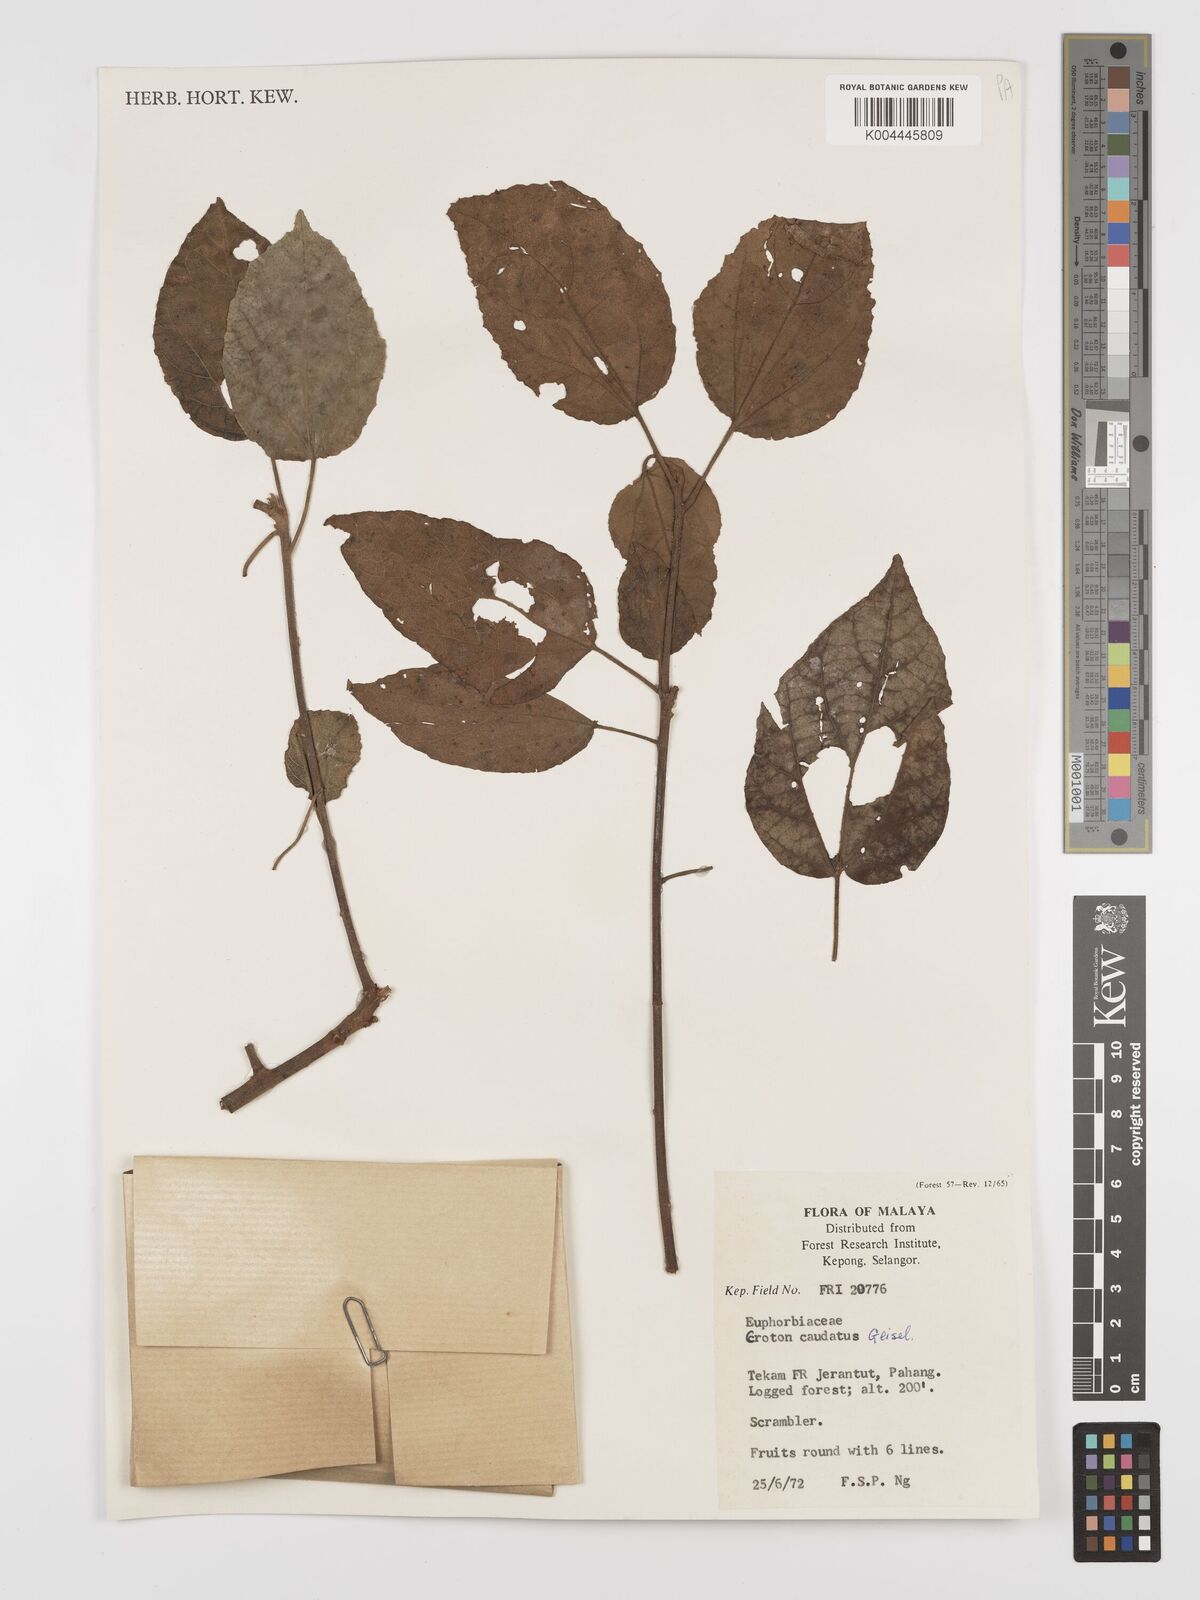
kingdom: Plantae
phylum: Tracheophyta
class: Magnoliopsida
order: Malpighiales
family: Euphorbiaceae
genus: Croton
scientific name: Croton caudatus
